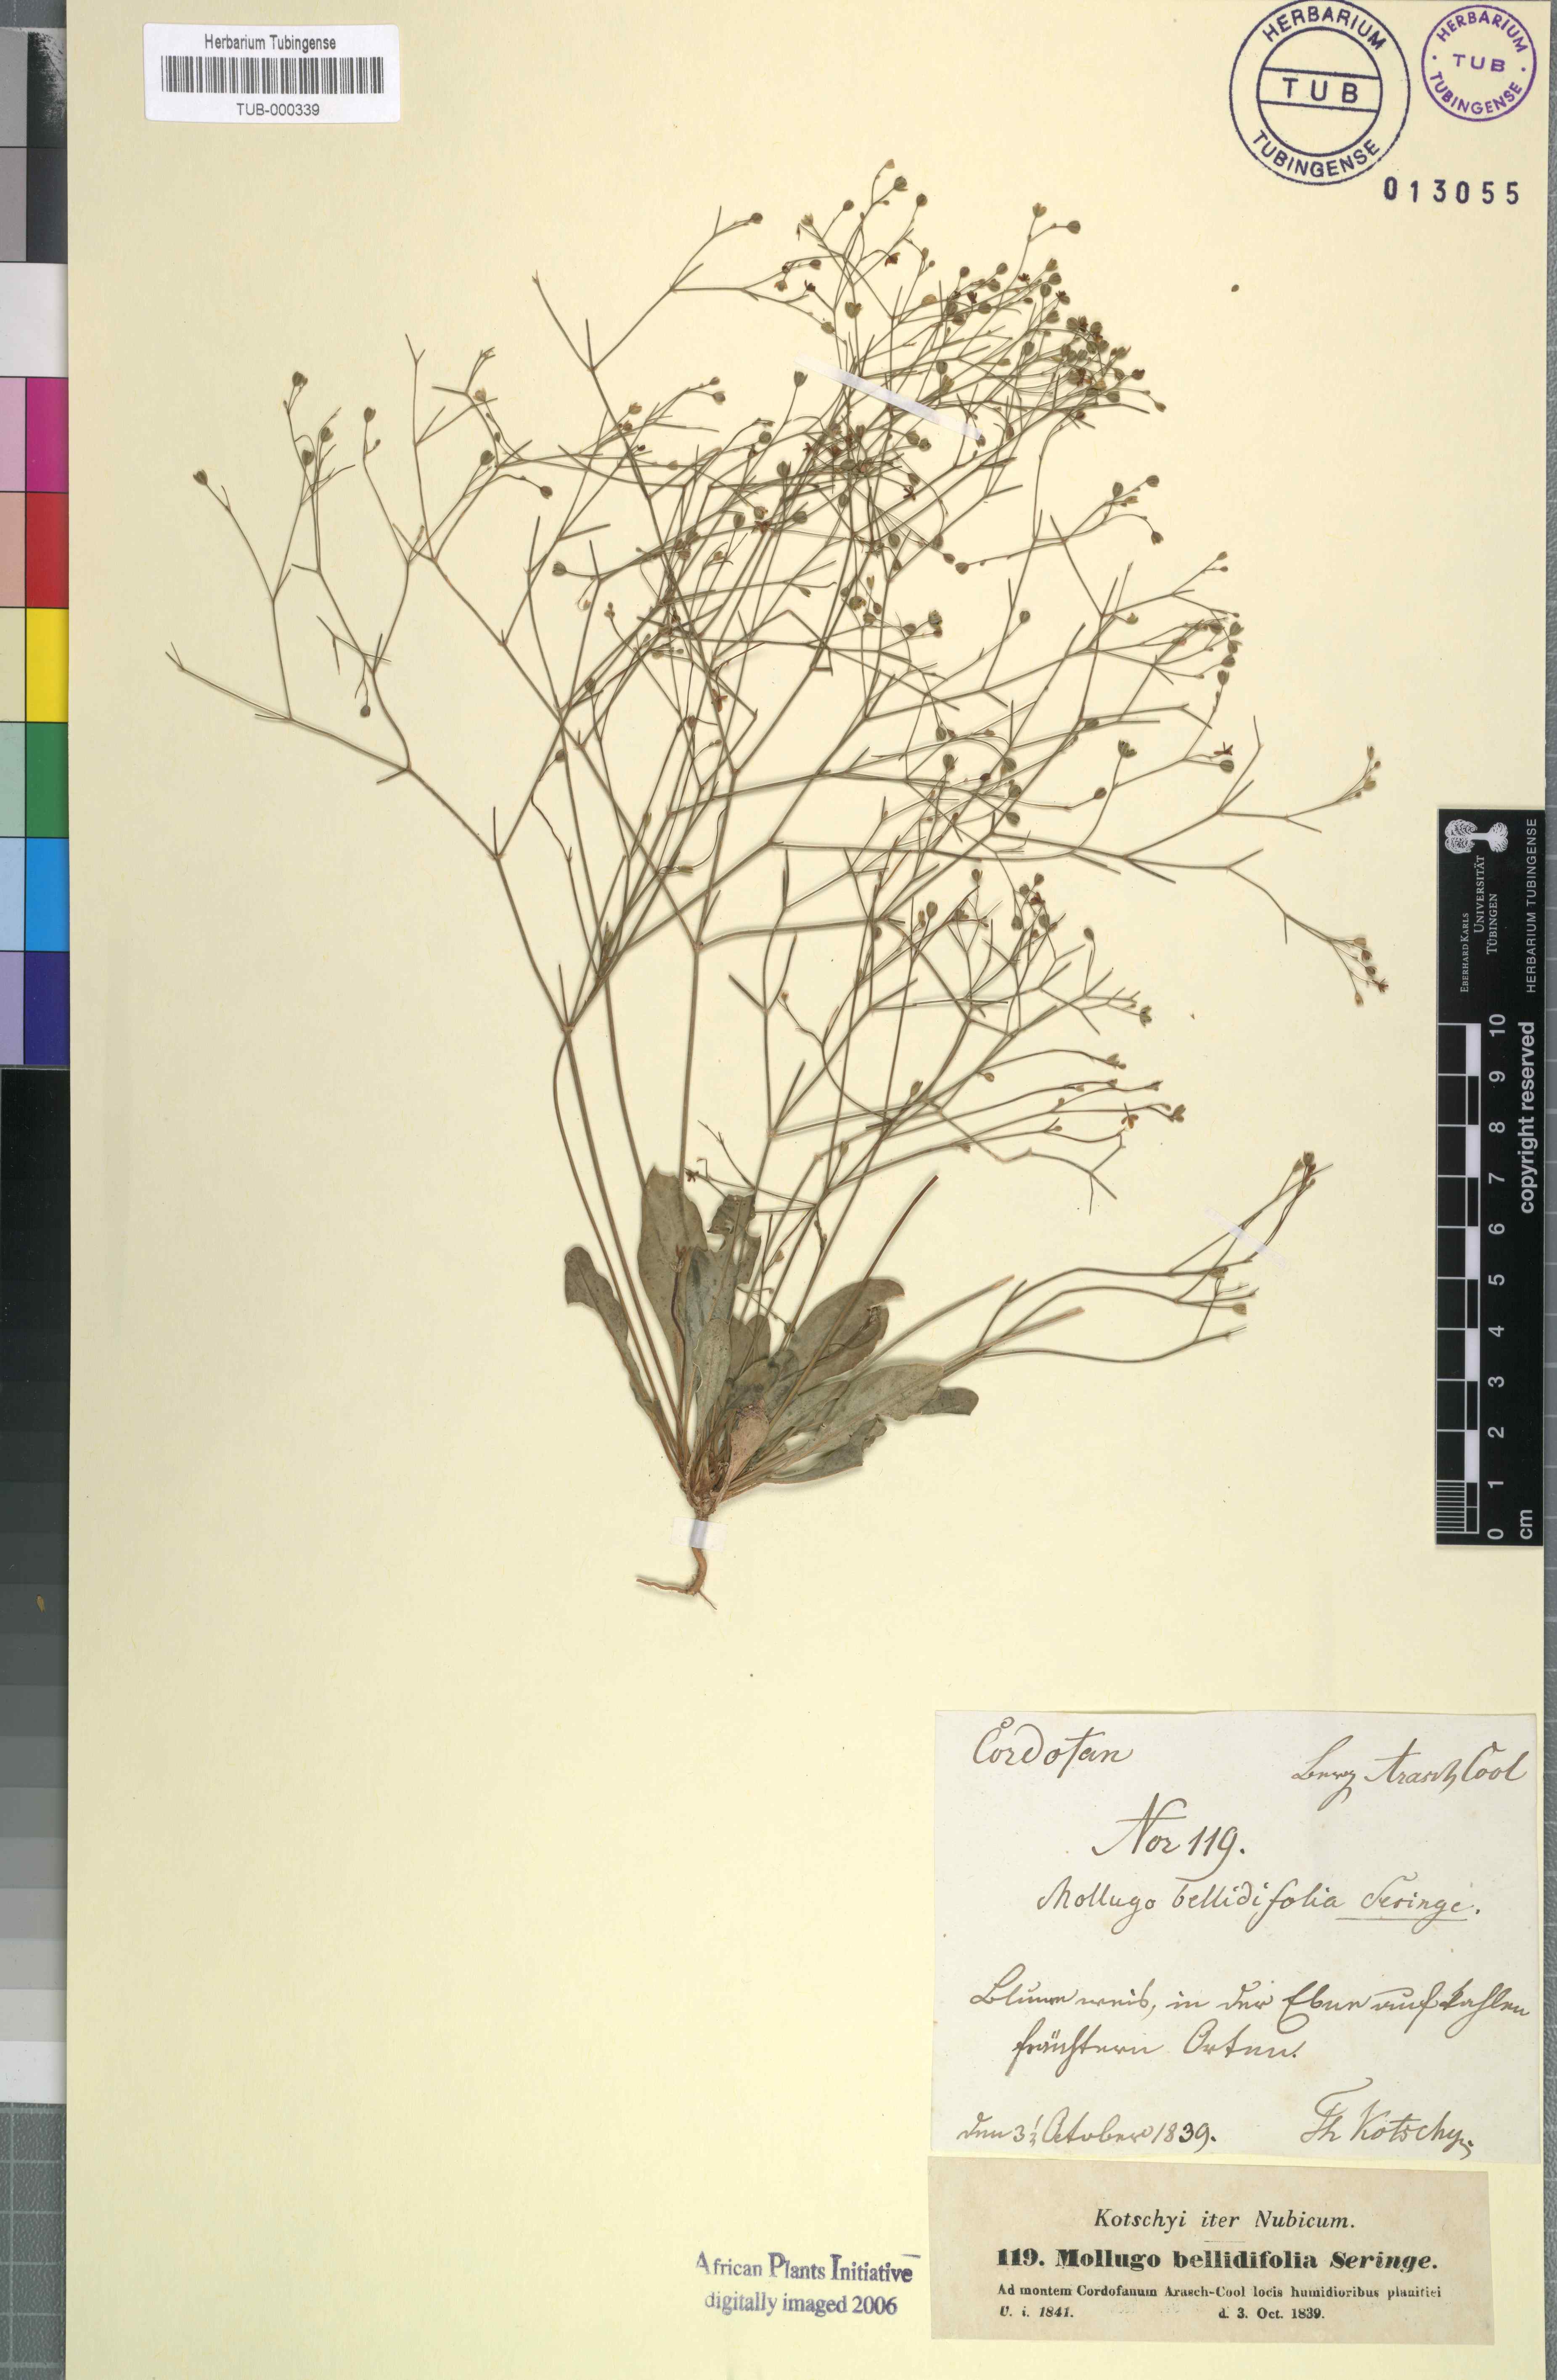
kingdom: Plantae
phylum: Tracheophyta
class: Magnoliopsida
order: Caryophyllales
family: Molluginaceae
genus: Paramollugo
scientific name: Paramollugo nudicaulis
